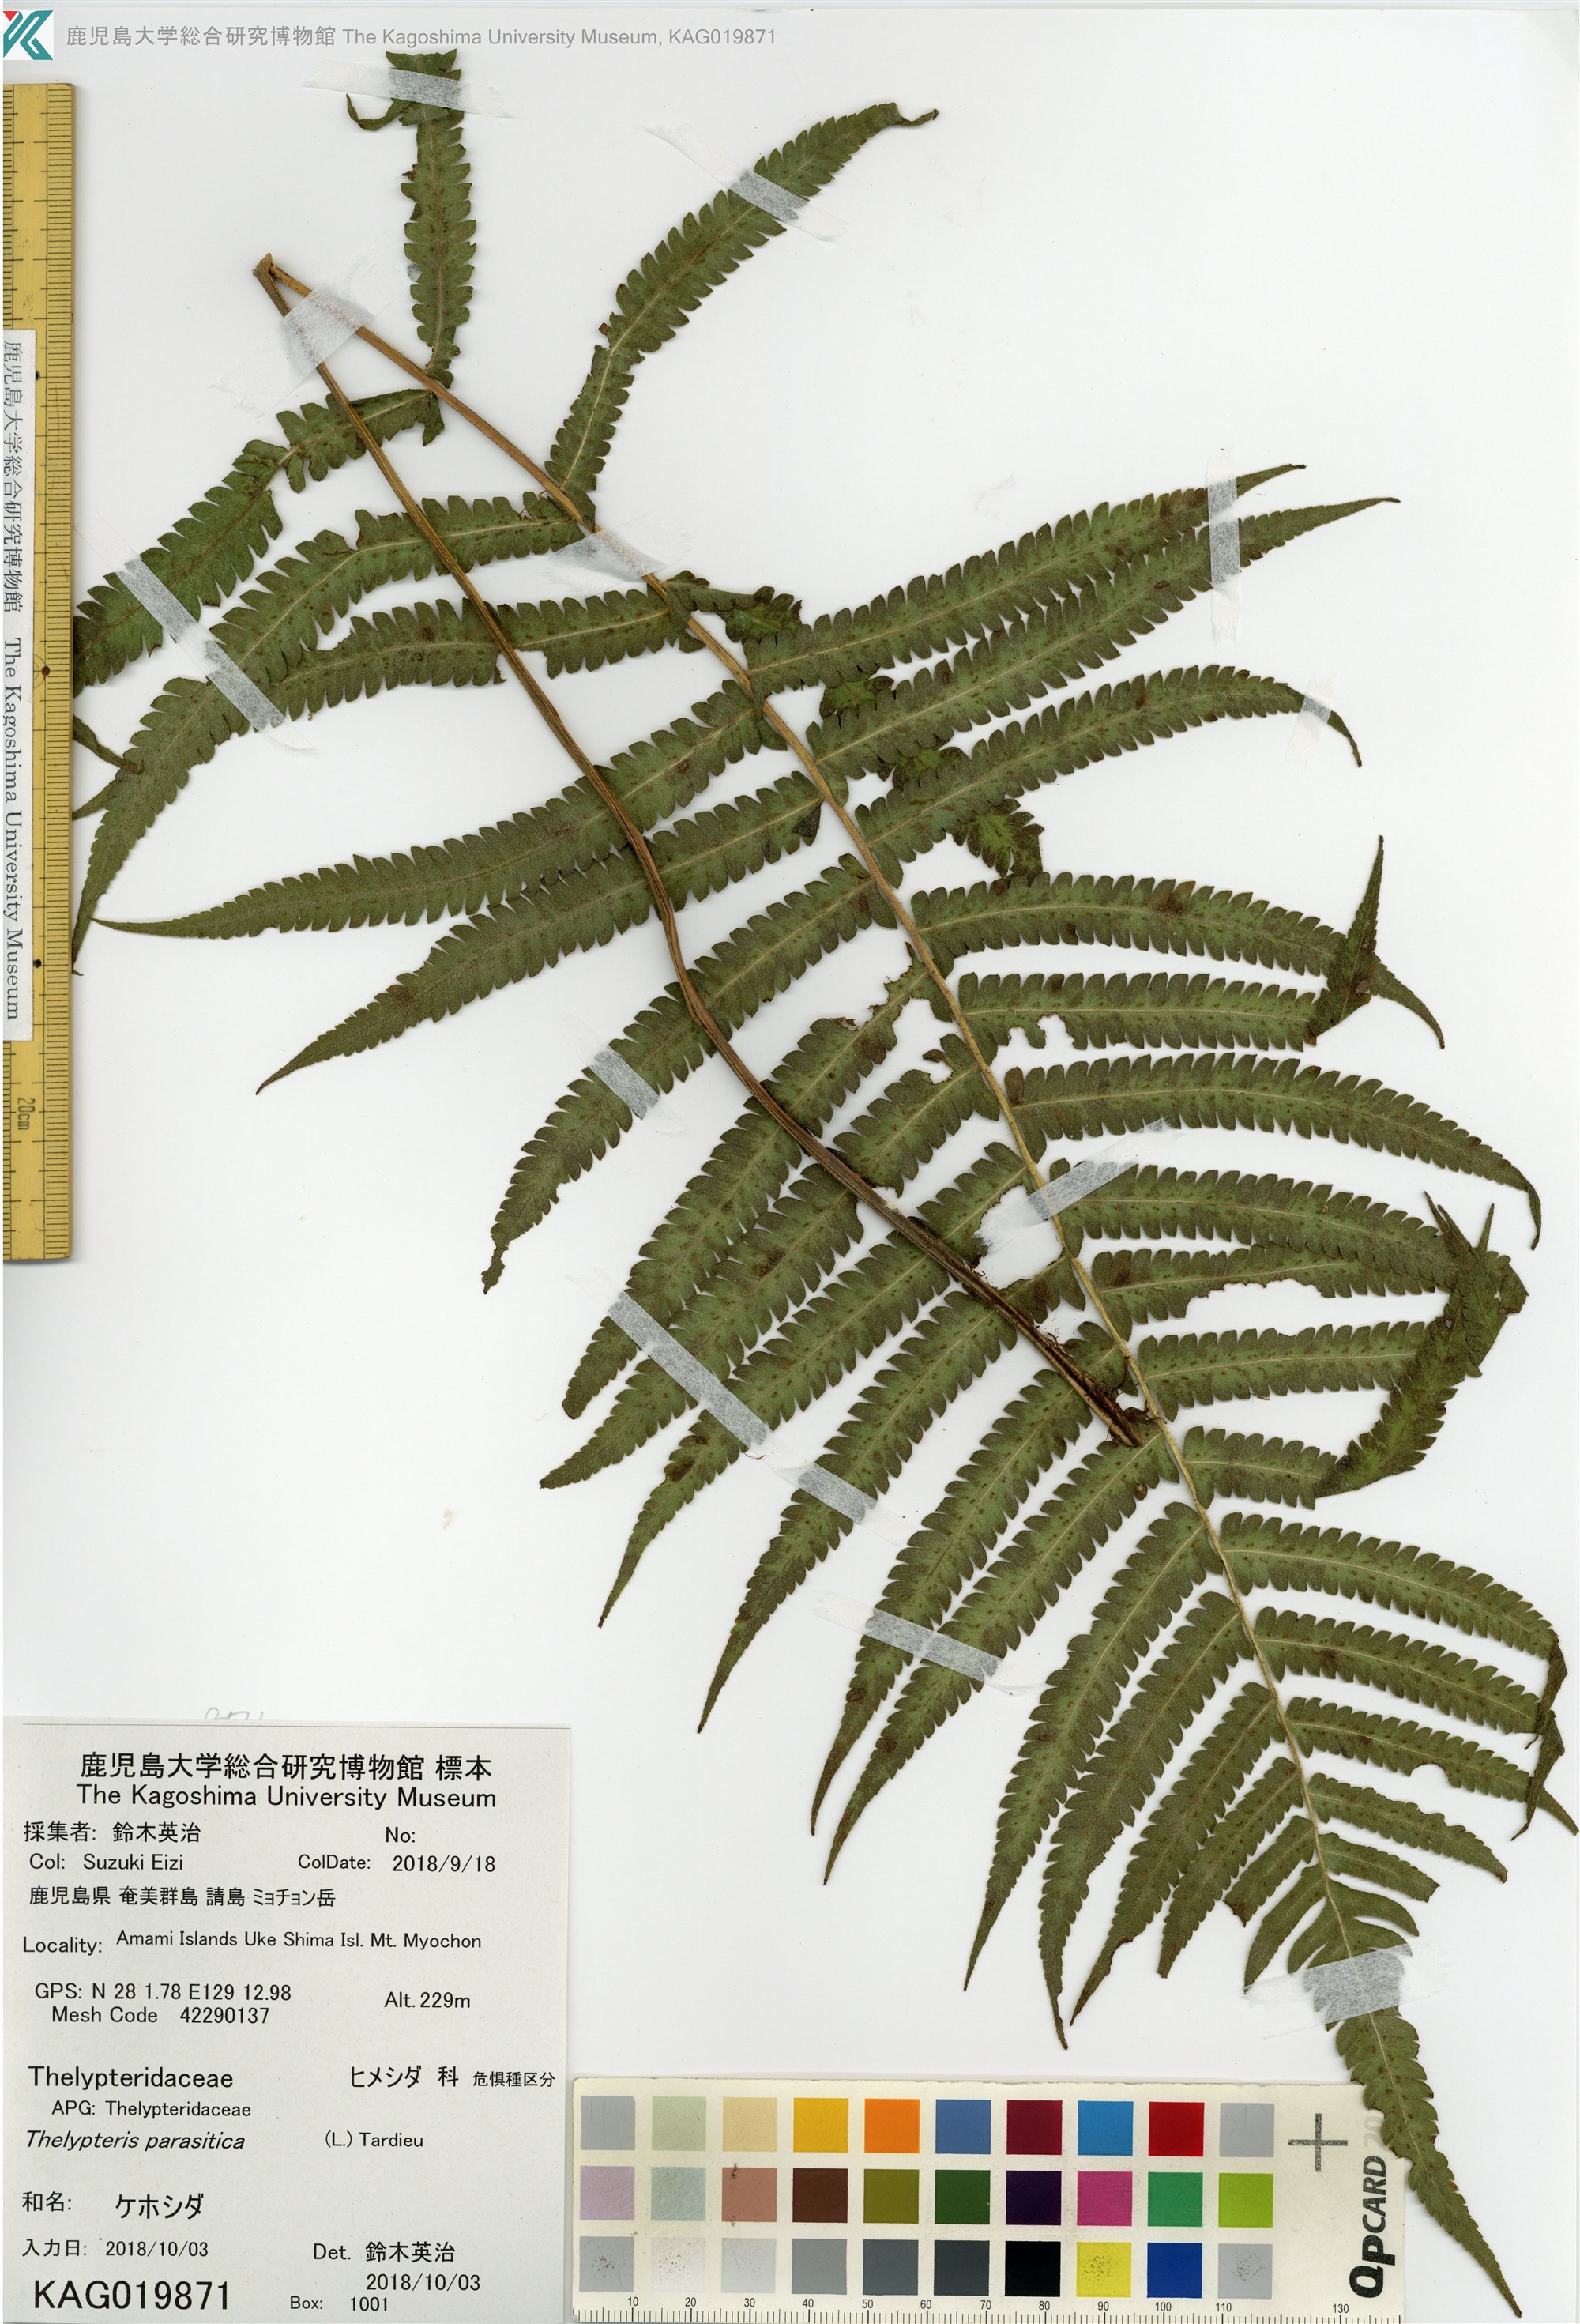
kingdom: Plantae
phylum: Tracheophyta
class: Polypodiopsida
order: Polypodiales
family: Thelypteridaceae
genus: Christella
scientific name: Christella parasitica
